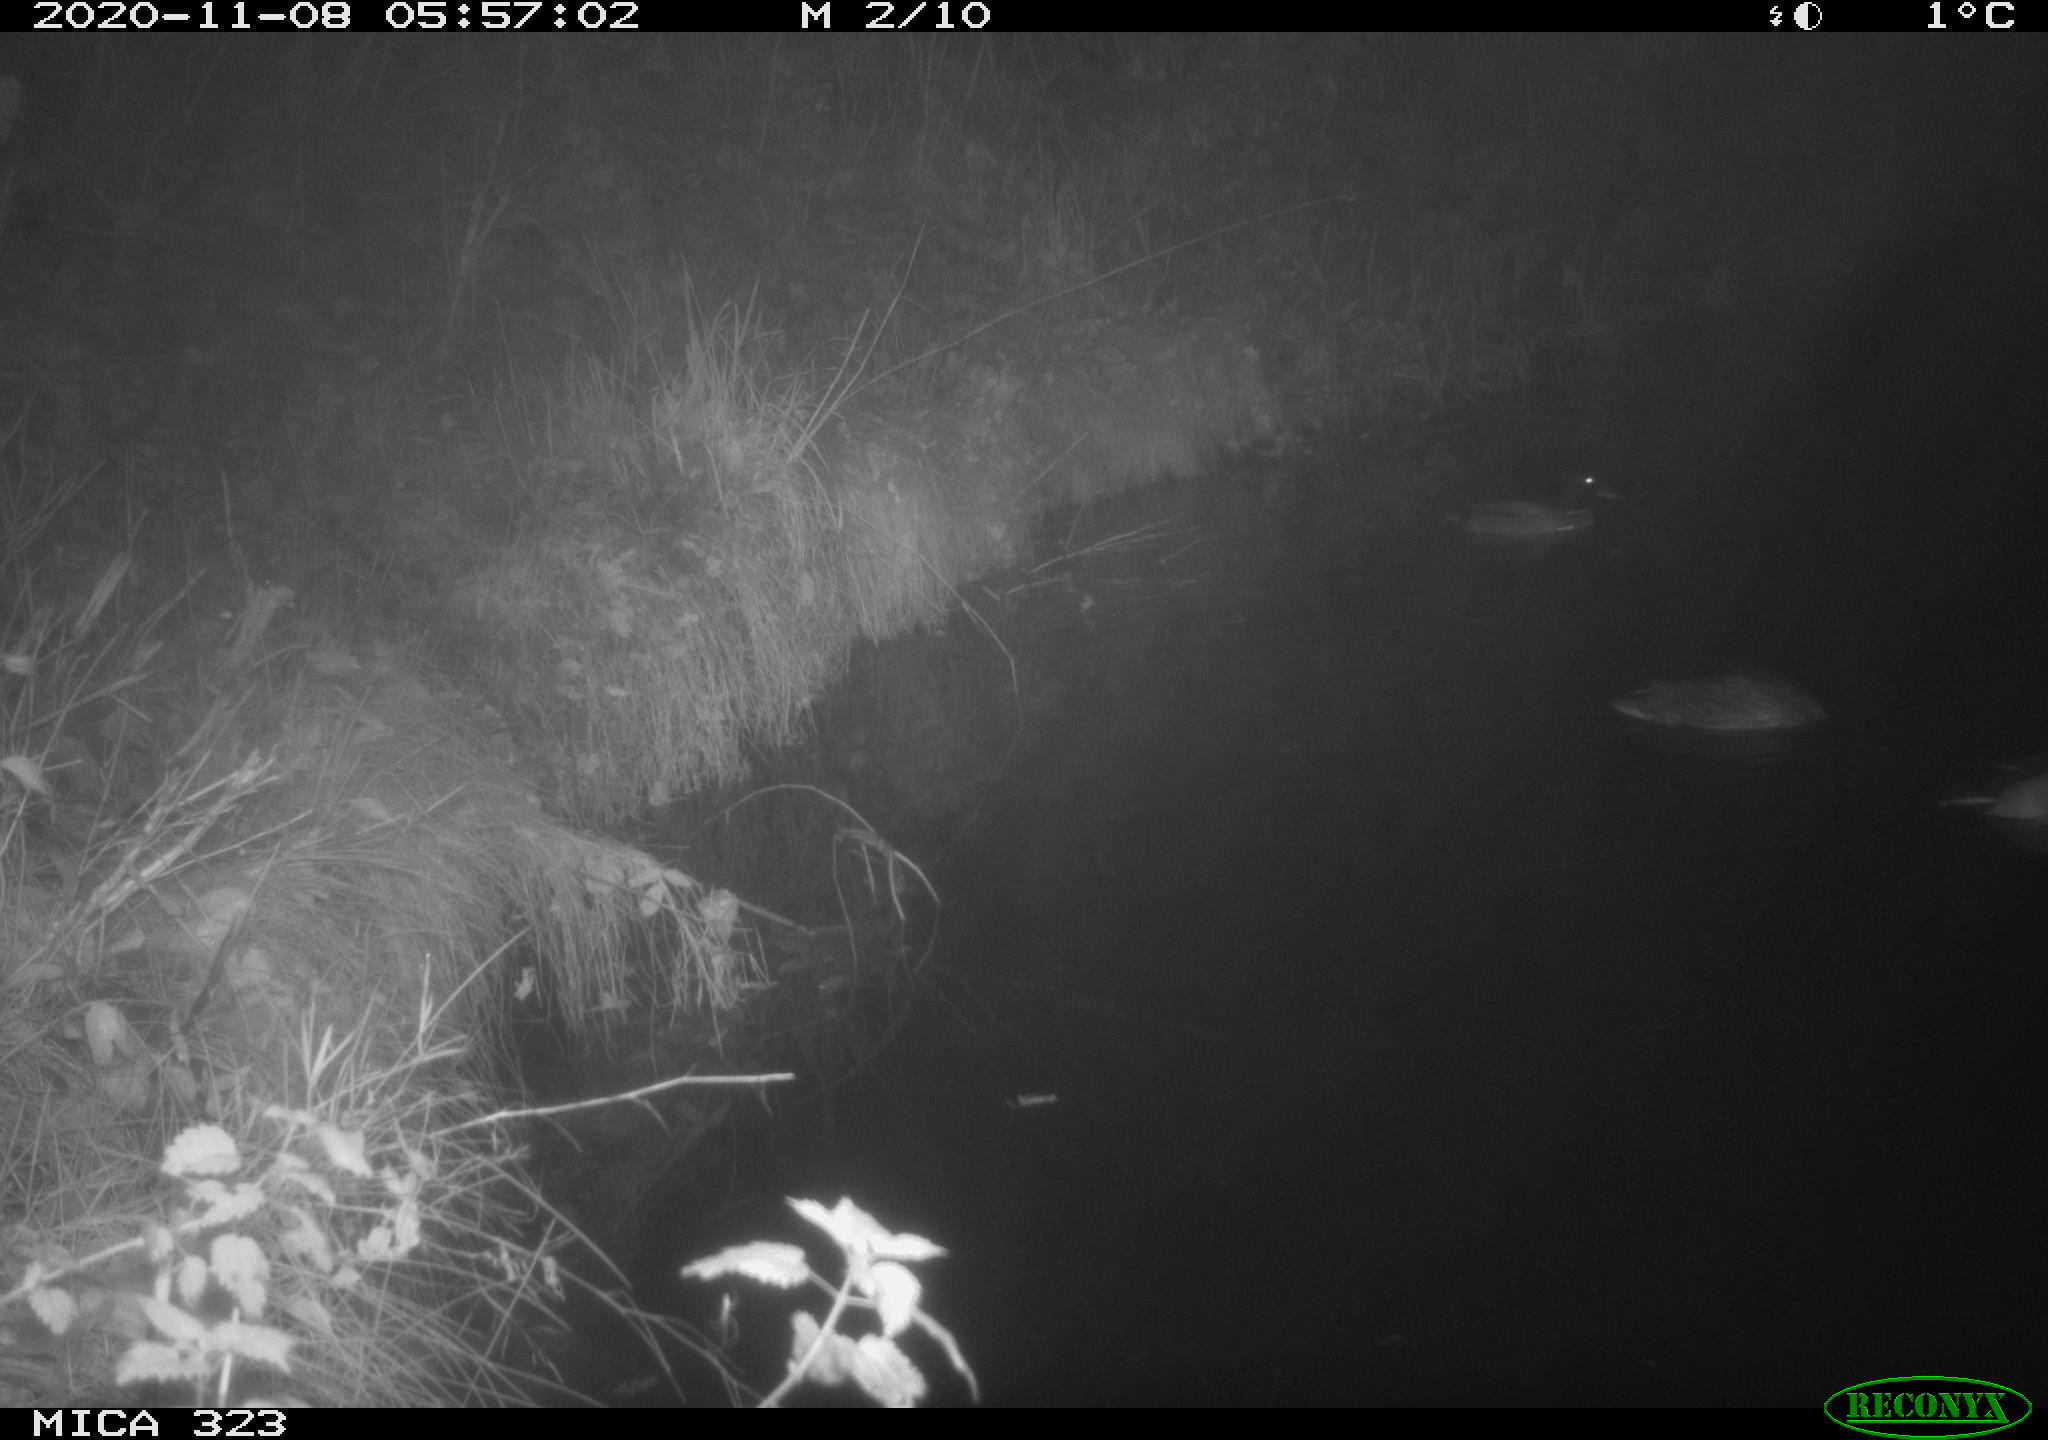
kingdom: Animalia
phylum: Chordata
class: Aves
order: Anseriformes
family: Anatidae
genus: Anas
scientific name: Anas platyrhynchos
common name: Mallard
